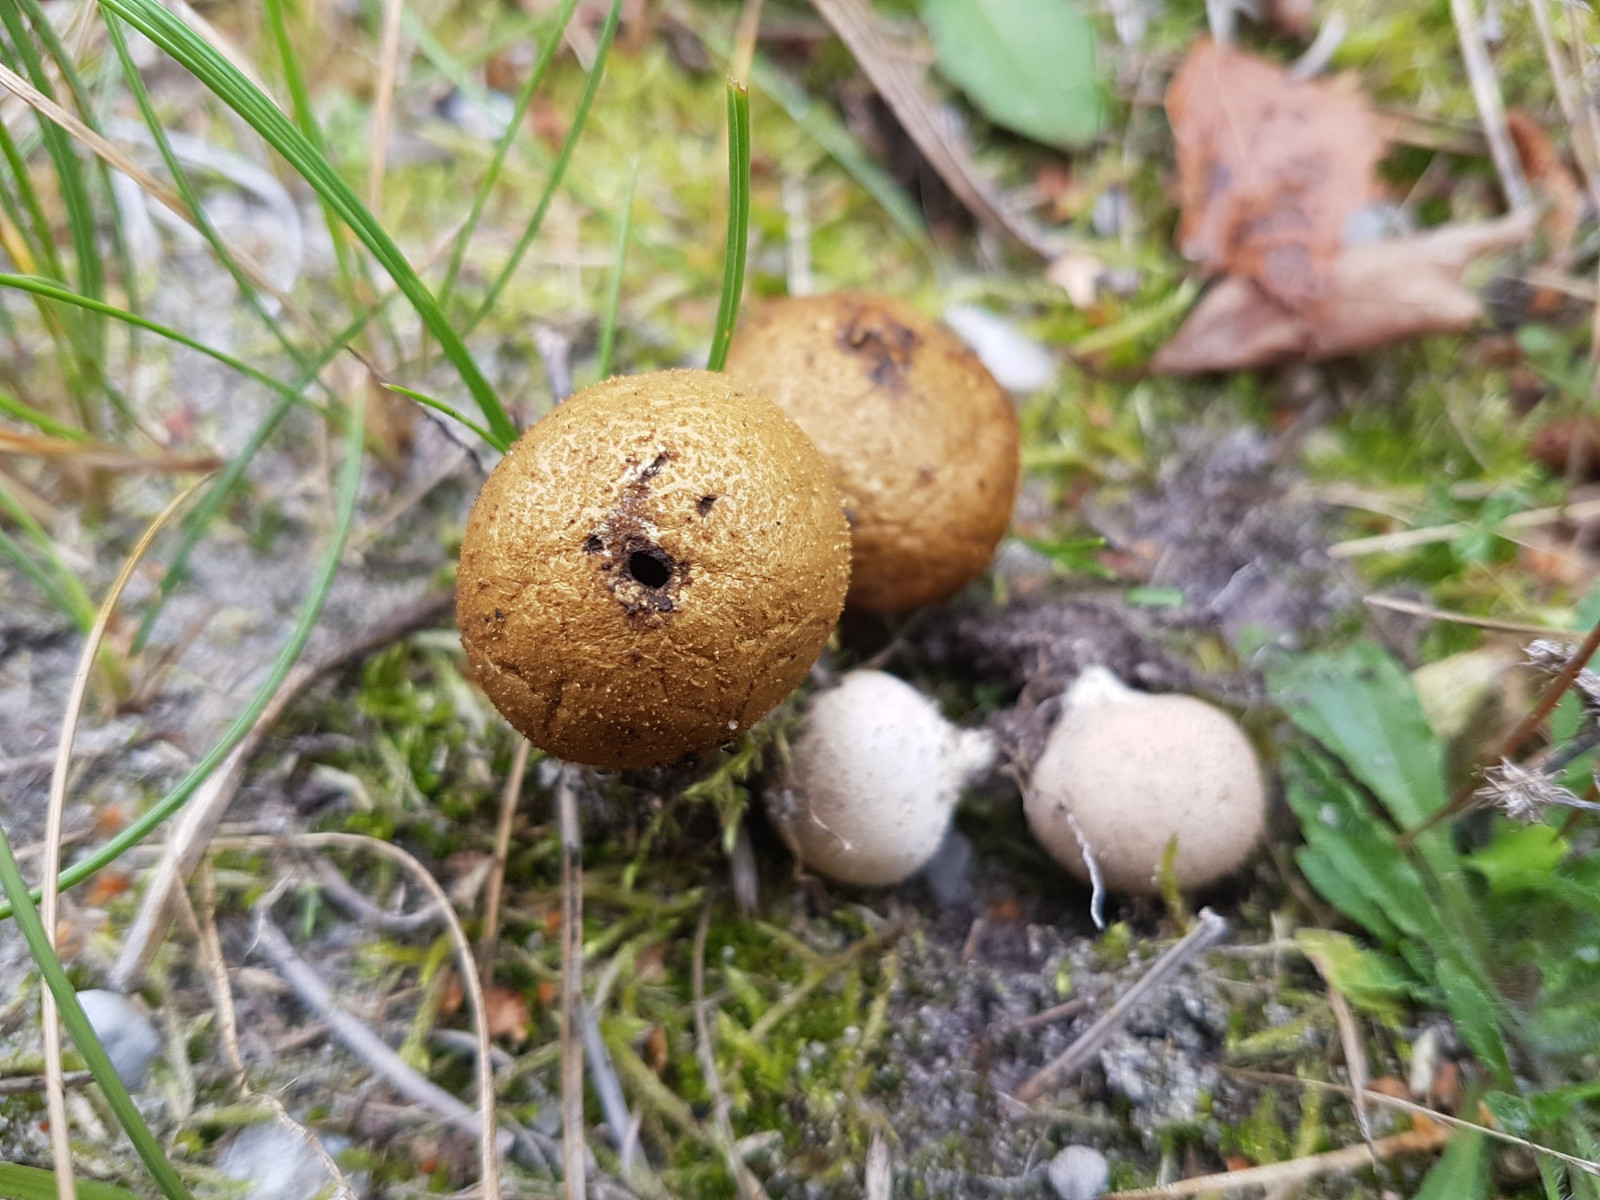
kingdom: Fungi
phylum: Basidiomycota
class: Agaricomycetes
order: Agaricales
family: Lycoperdaceae
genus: Lycoperdon
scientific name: Lycoperdon lividum
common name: mark-støvbold
